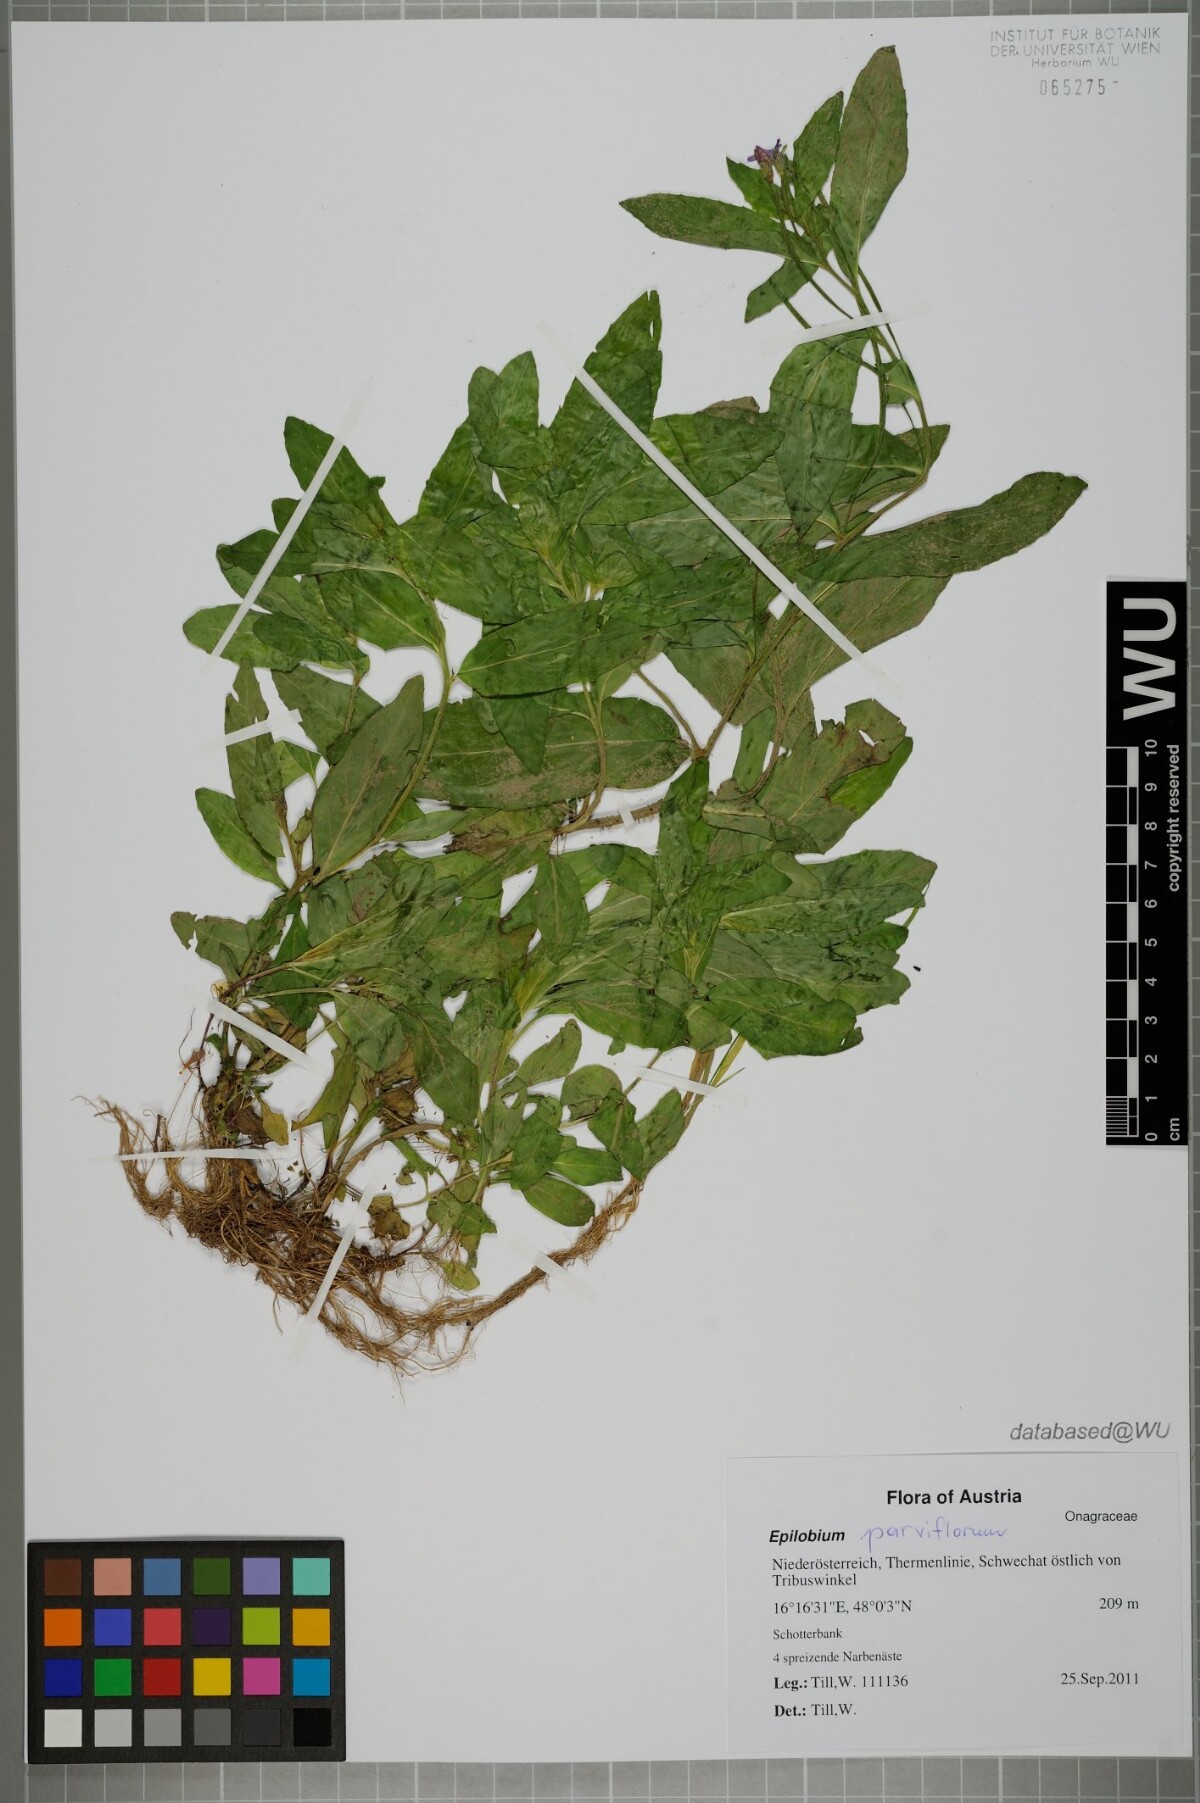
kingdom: Plantae
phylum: Tracheophyta
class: Magnoliopsida
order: Myrtales
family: Onagraceae
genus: Epilobium
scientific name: Epilobium parviflorum
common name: Hoary willowherb
